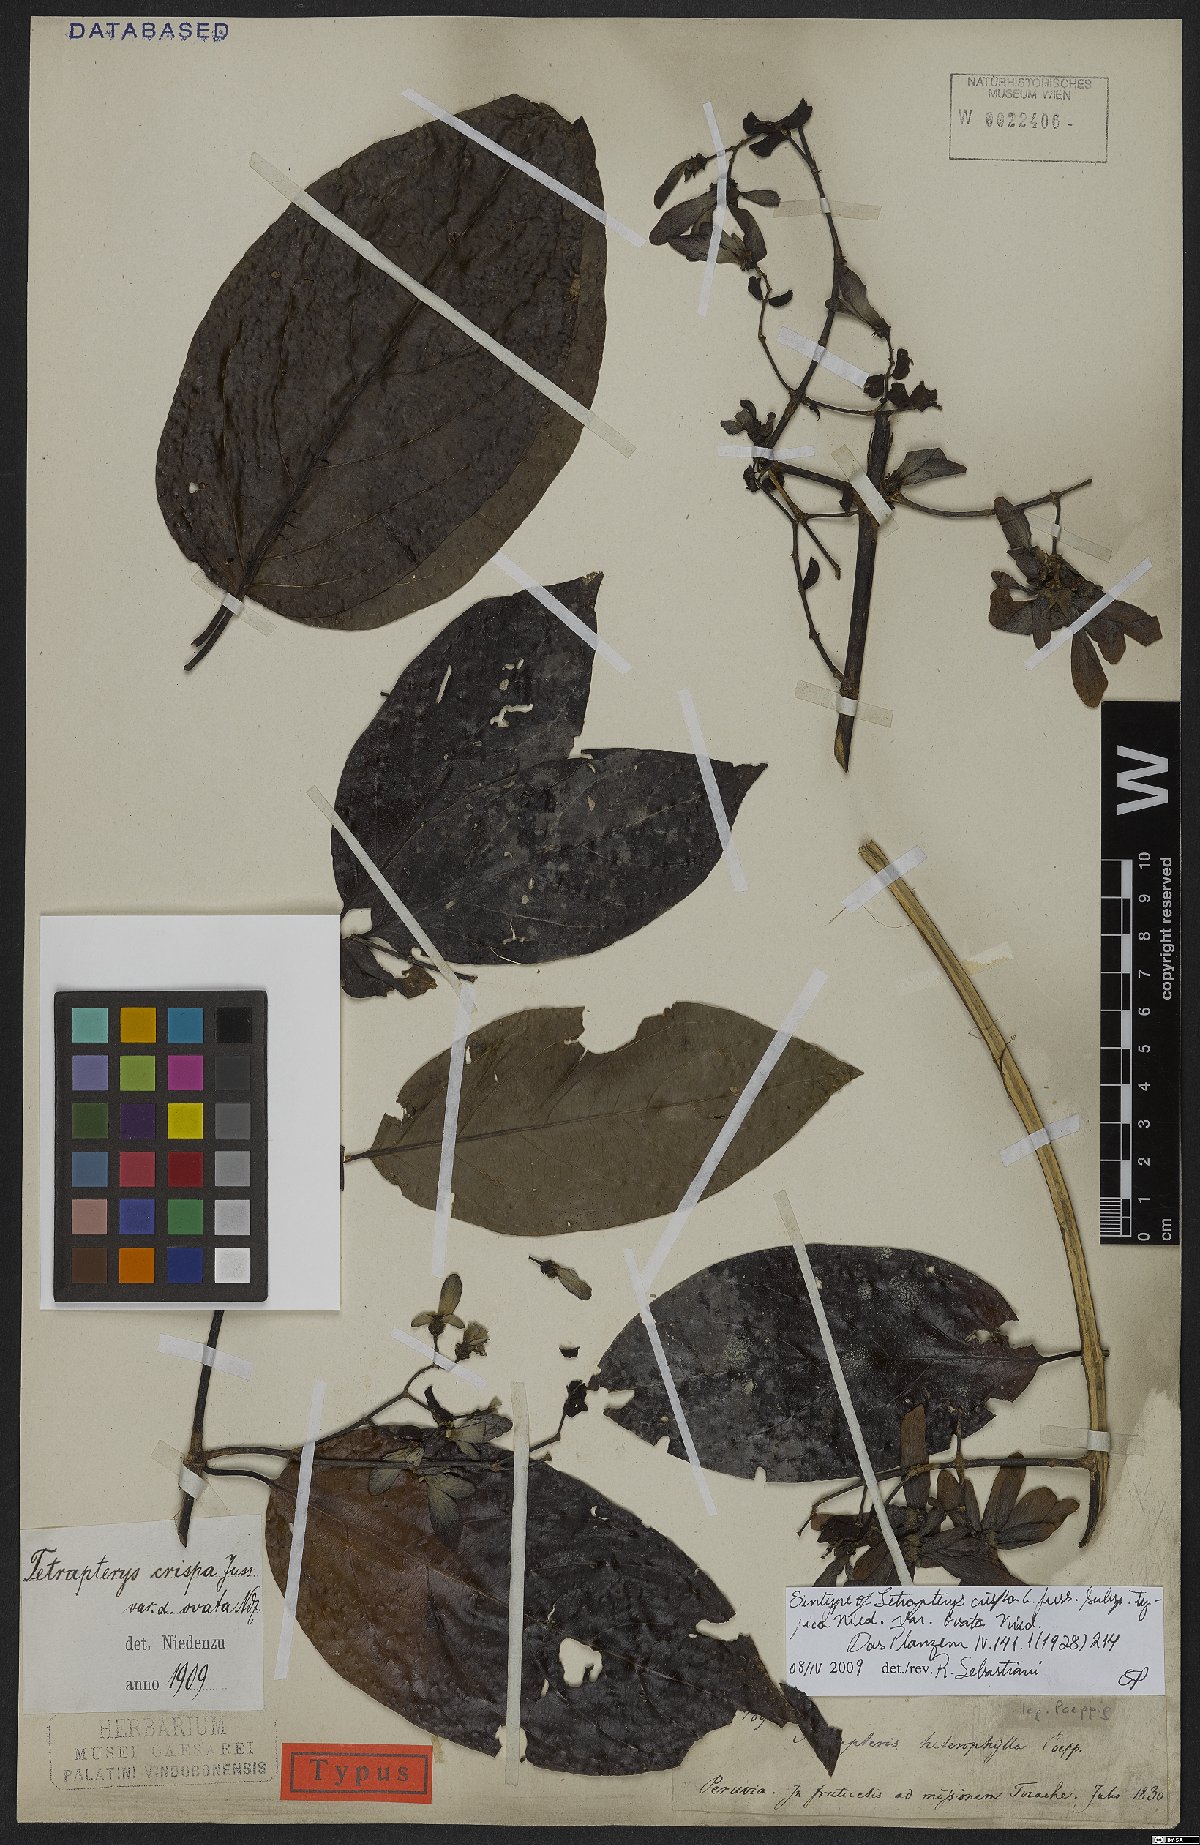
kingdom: Plantae
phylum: Tracheophyta
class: Magnoliopsida
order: Malpighiales
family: Malpighiaceae
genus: Tetrapterys
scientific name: Tetrapterys crispa
